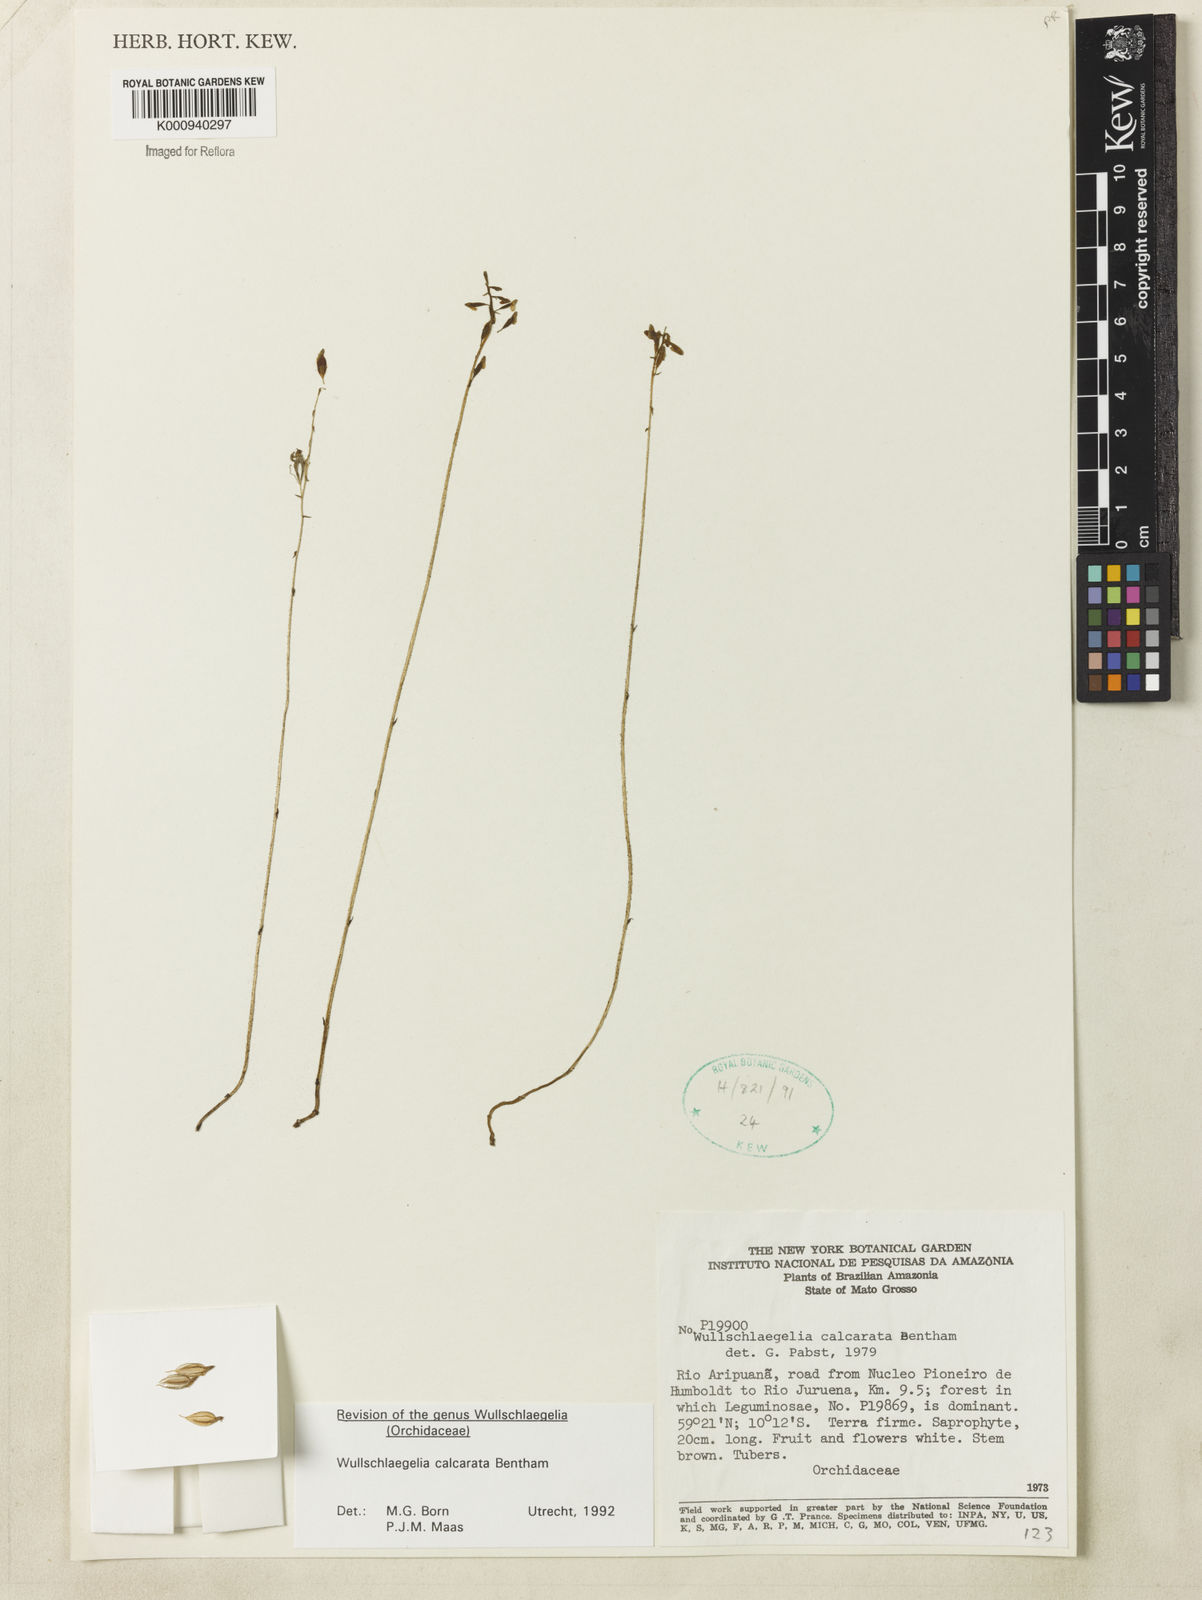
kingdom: Plantae
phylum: Tracheophyta
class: Liliopsida
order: Asparagales
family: Orchidaceae
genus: Wullschlaegelia
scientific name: Wullschlaegelia calcarata
